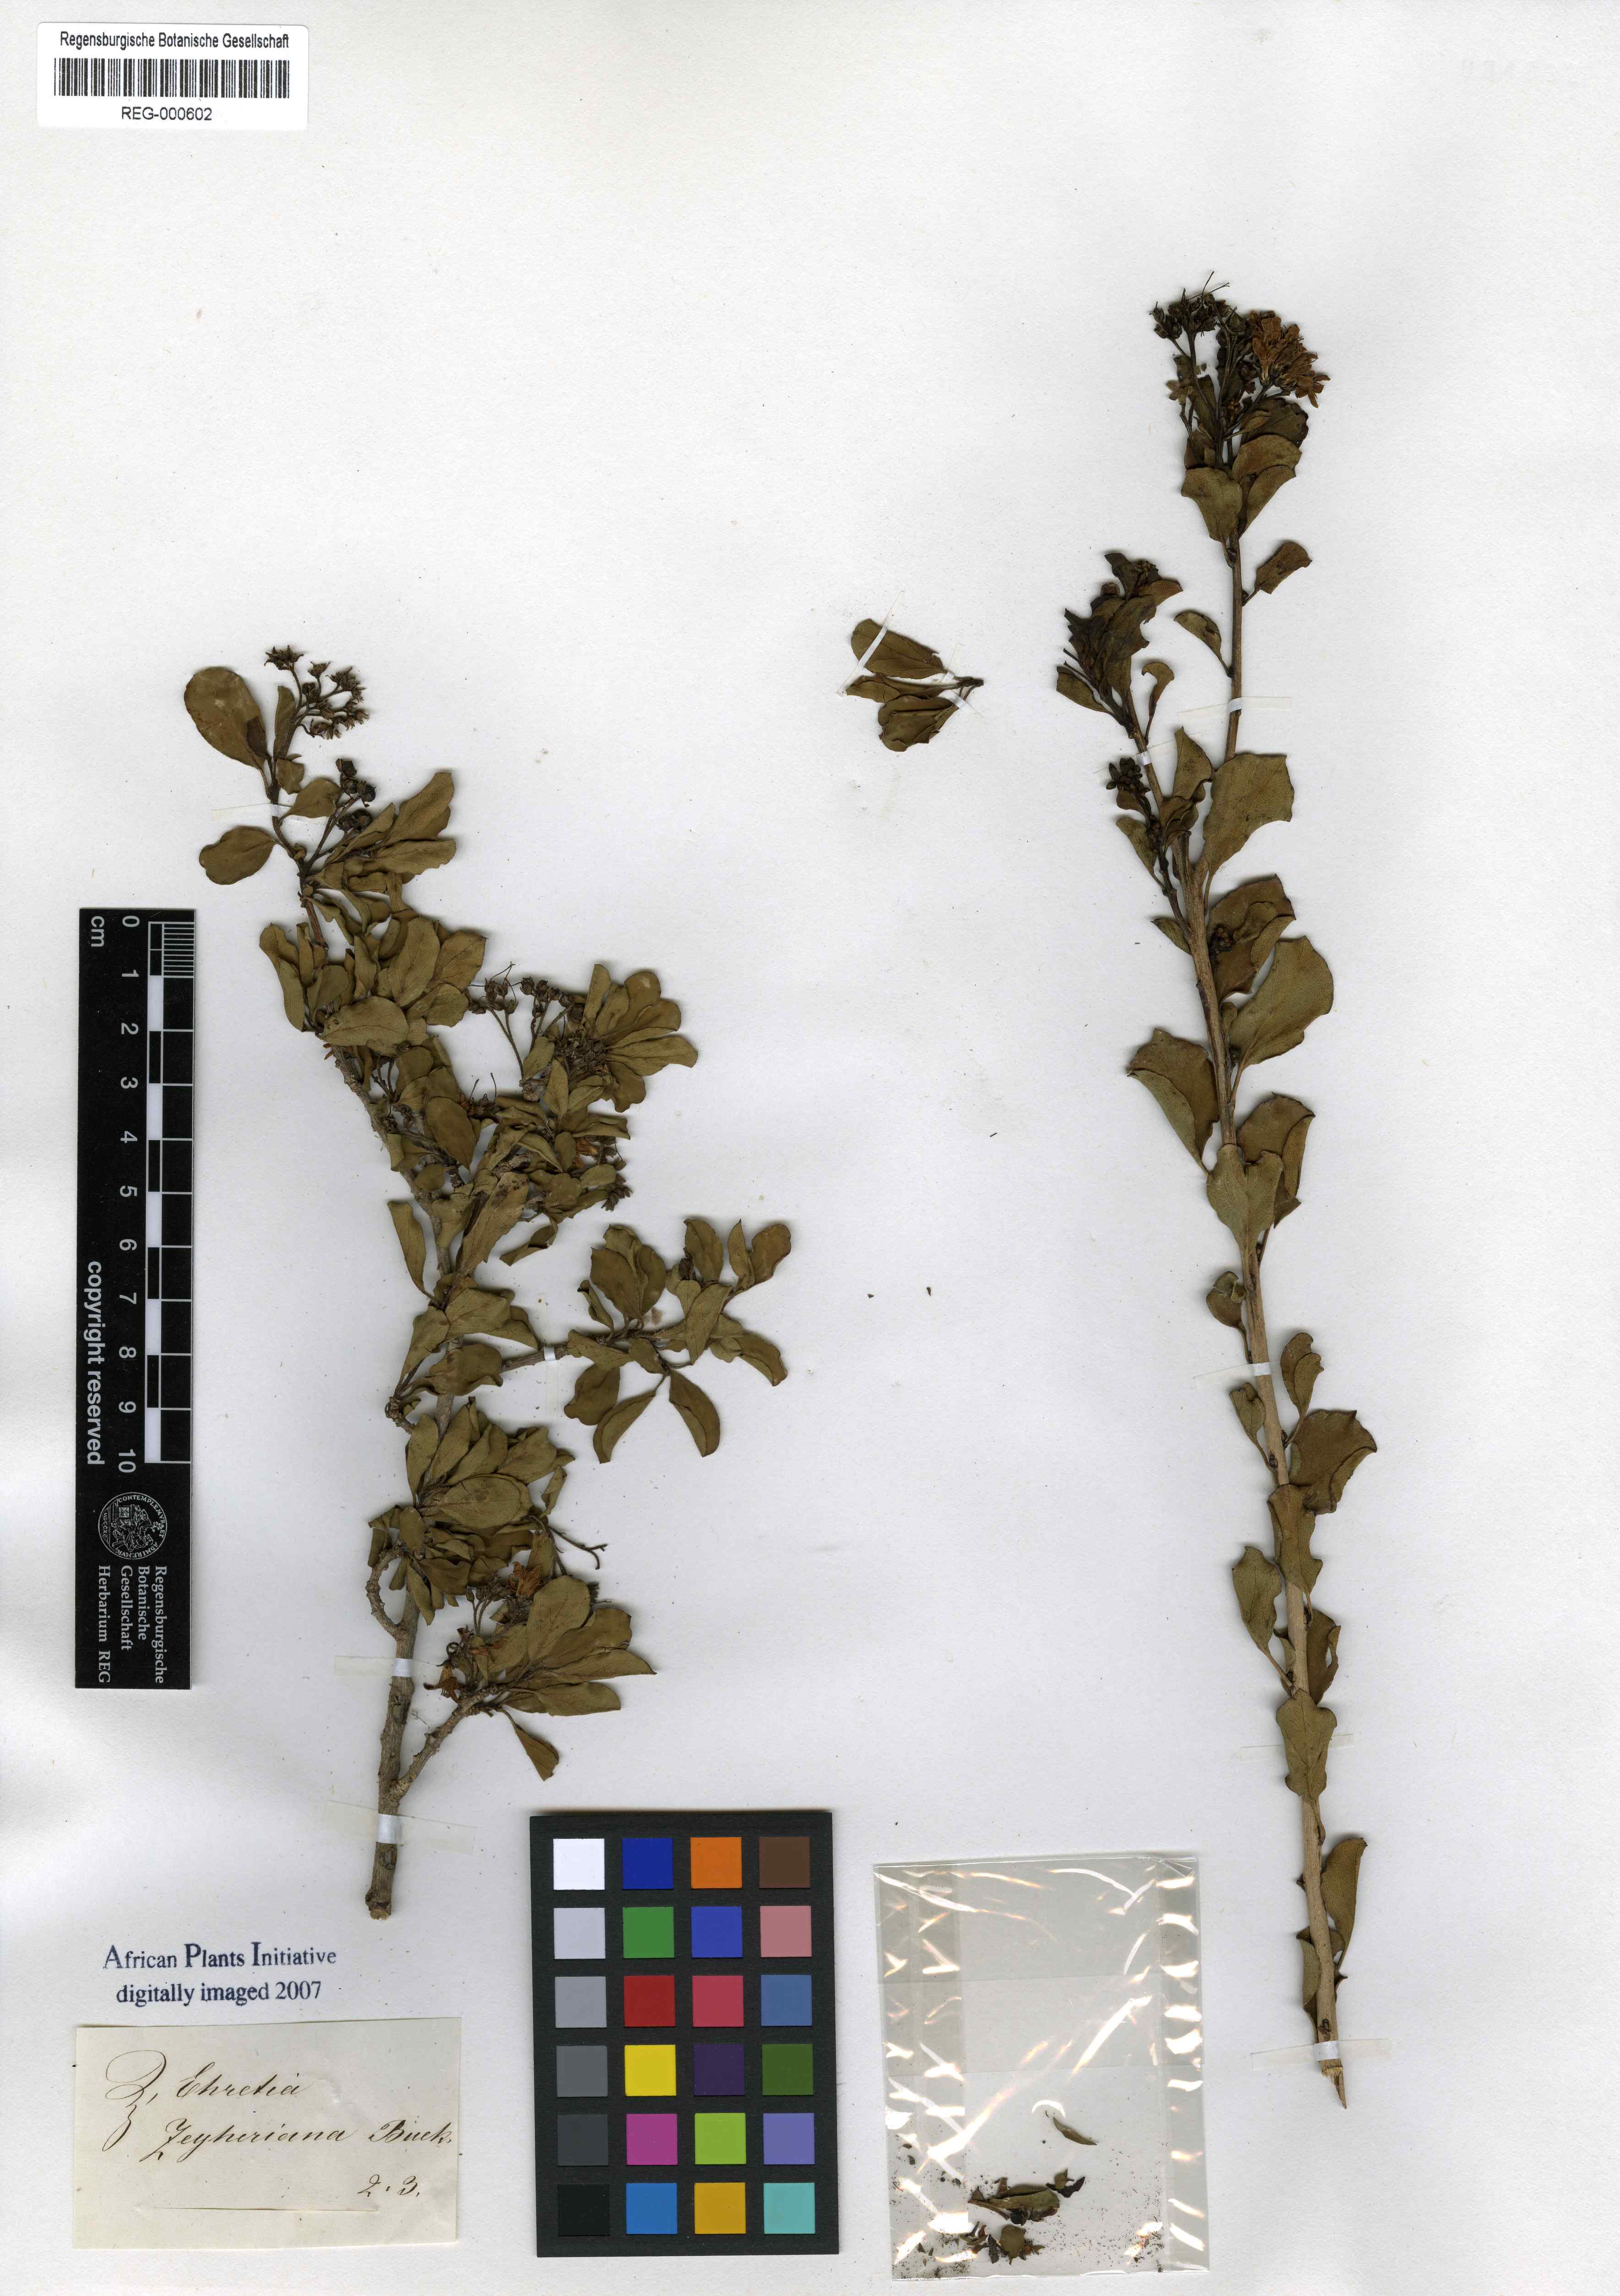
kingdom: Plantae
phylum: Tracheophyta
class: Magnoliopsida
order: Boraginales
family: Ehretiaceae
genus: Ehretia
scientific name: Ehretia rigida
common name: Cape lilac
